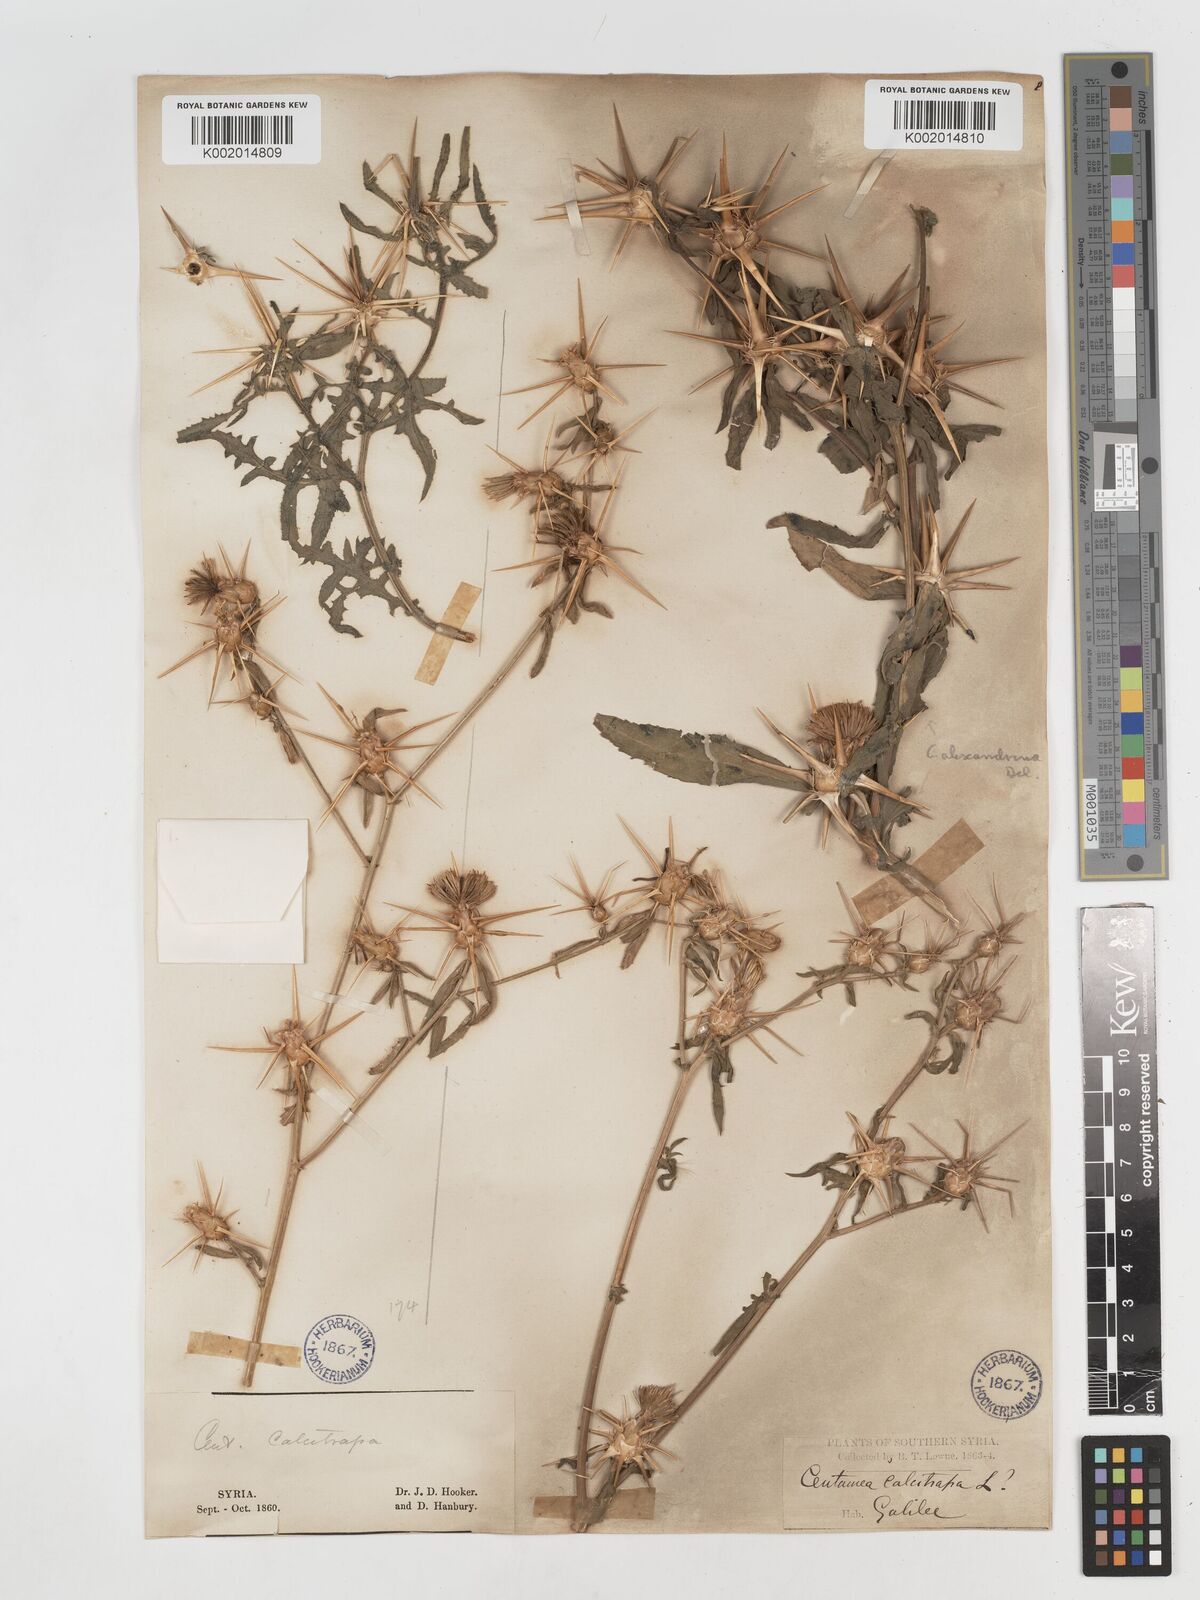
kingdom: Plantae
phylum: Tracheophyta
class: Magnoliopsida
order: Asterales
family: Asteraceae
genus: Centaurea
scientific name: Centaurea iberica
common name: Iberian knapweed
